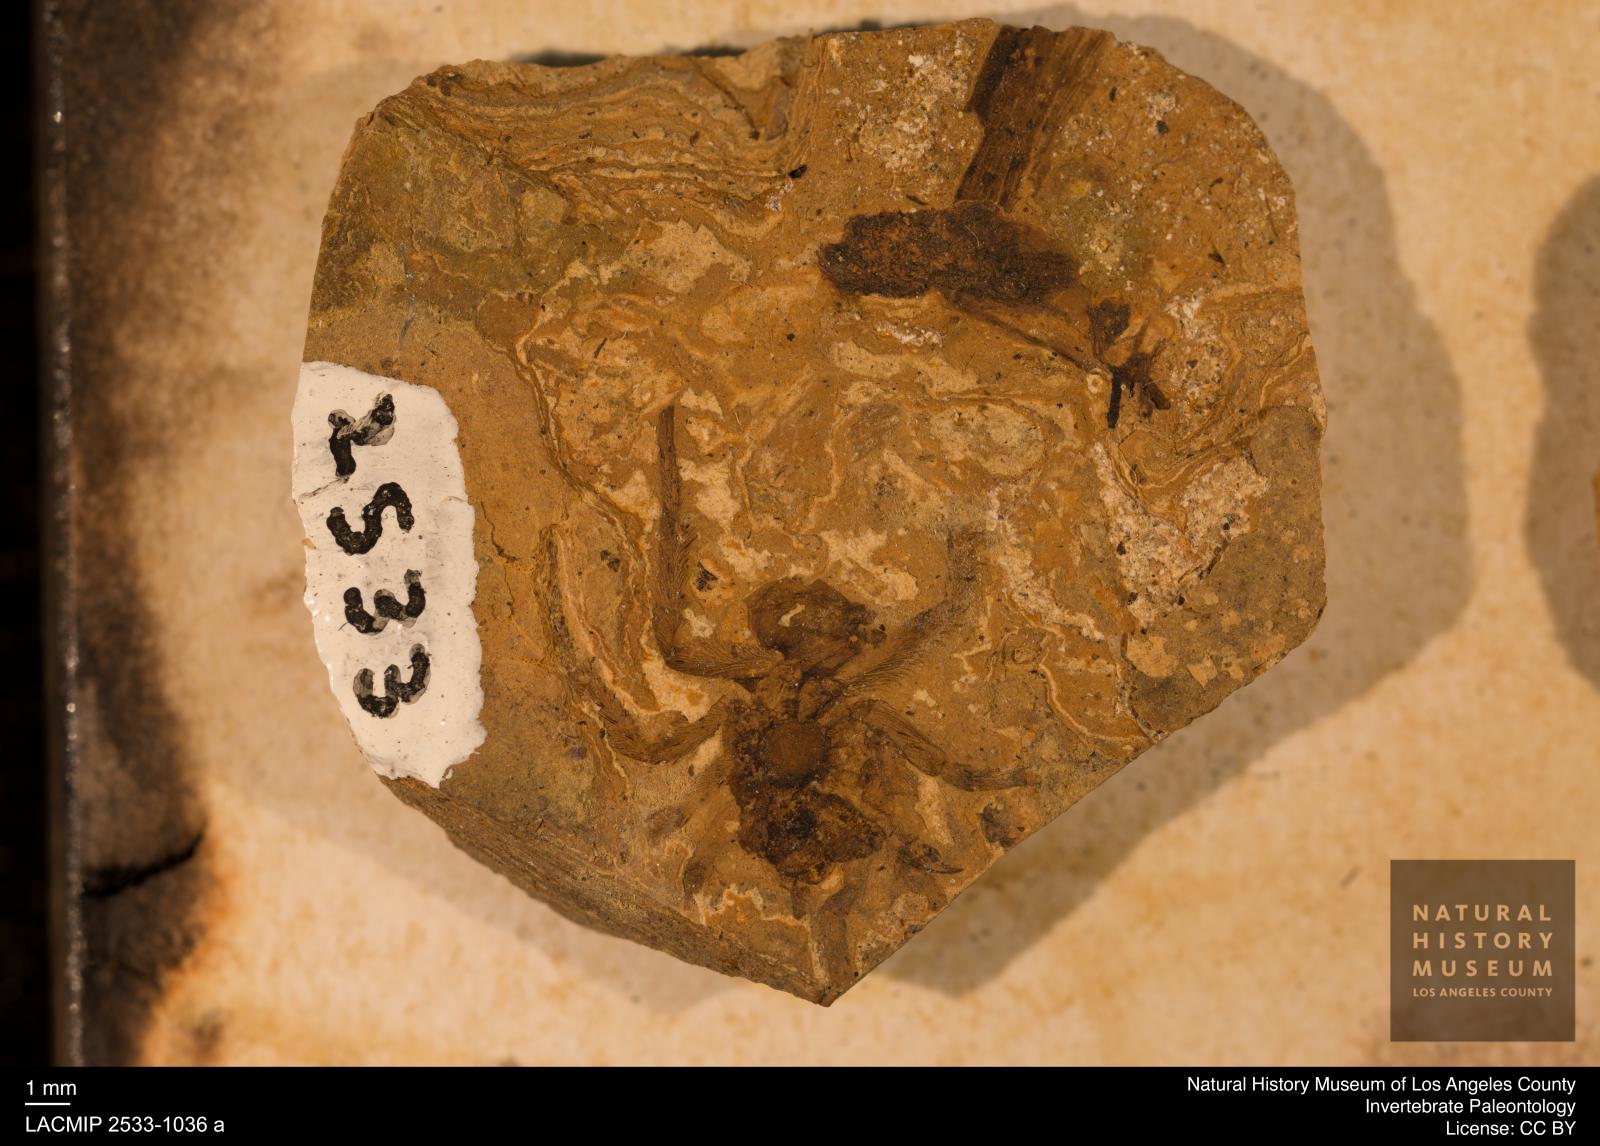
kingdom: Animalia
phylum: Arthropoda
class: Arachnida
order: Araneae
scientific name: Araneae
